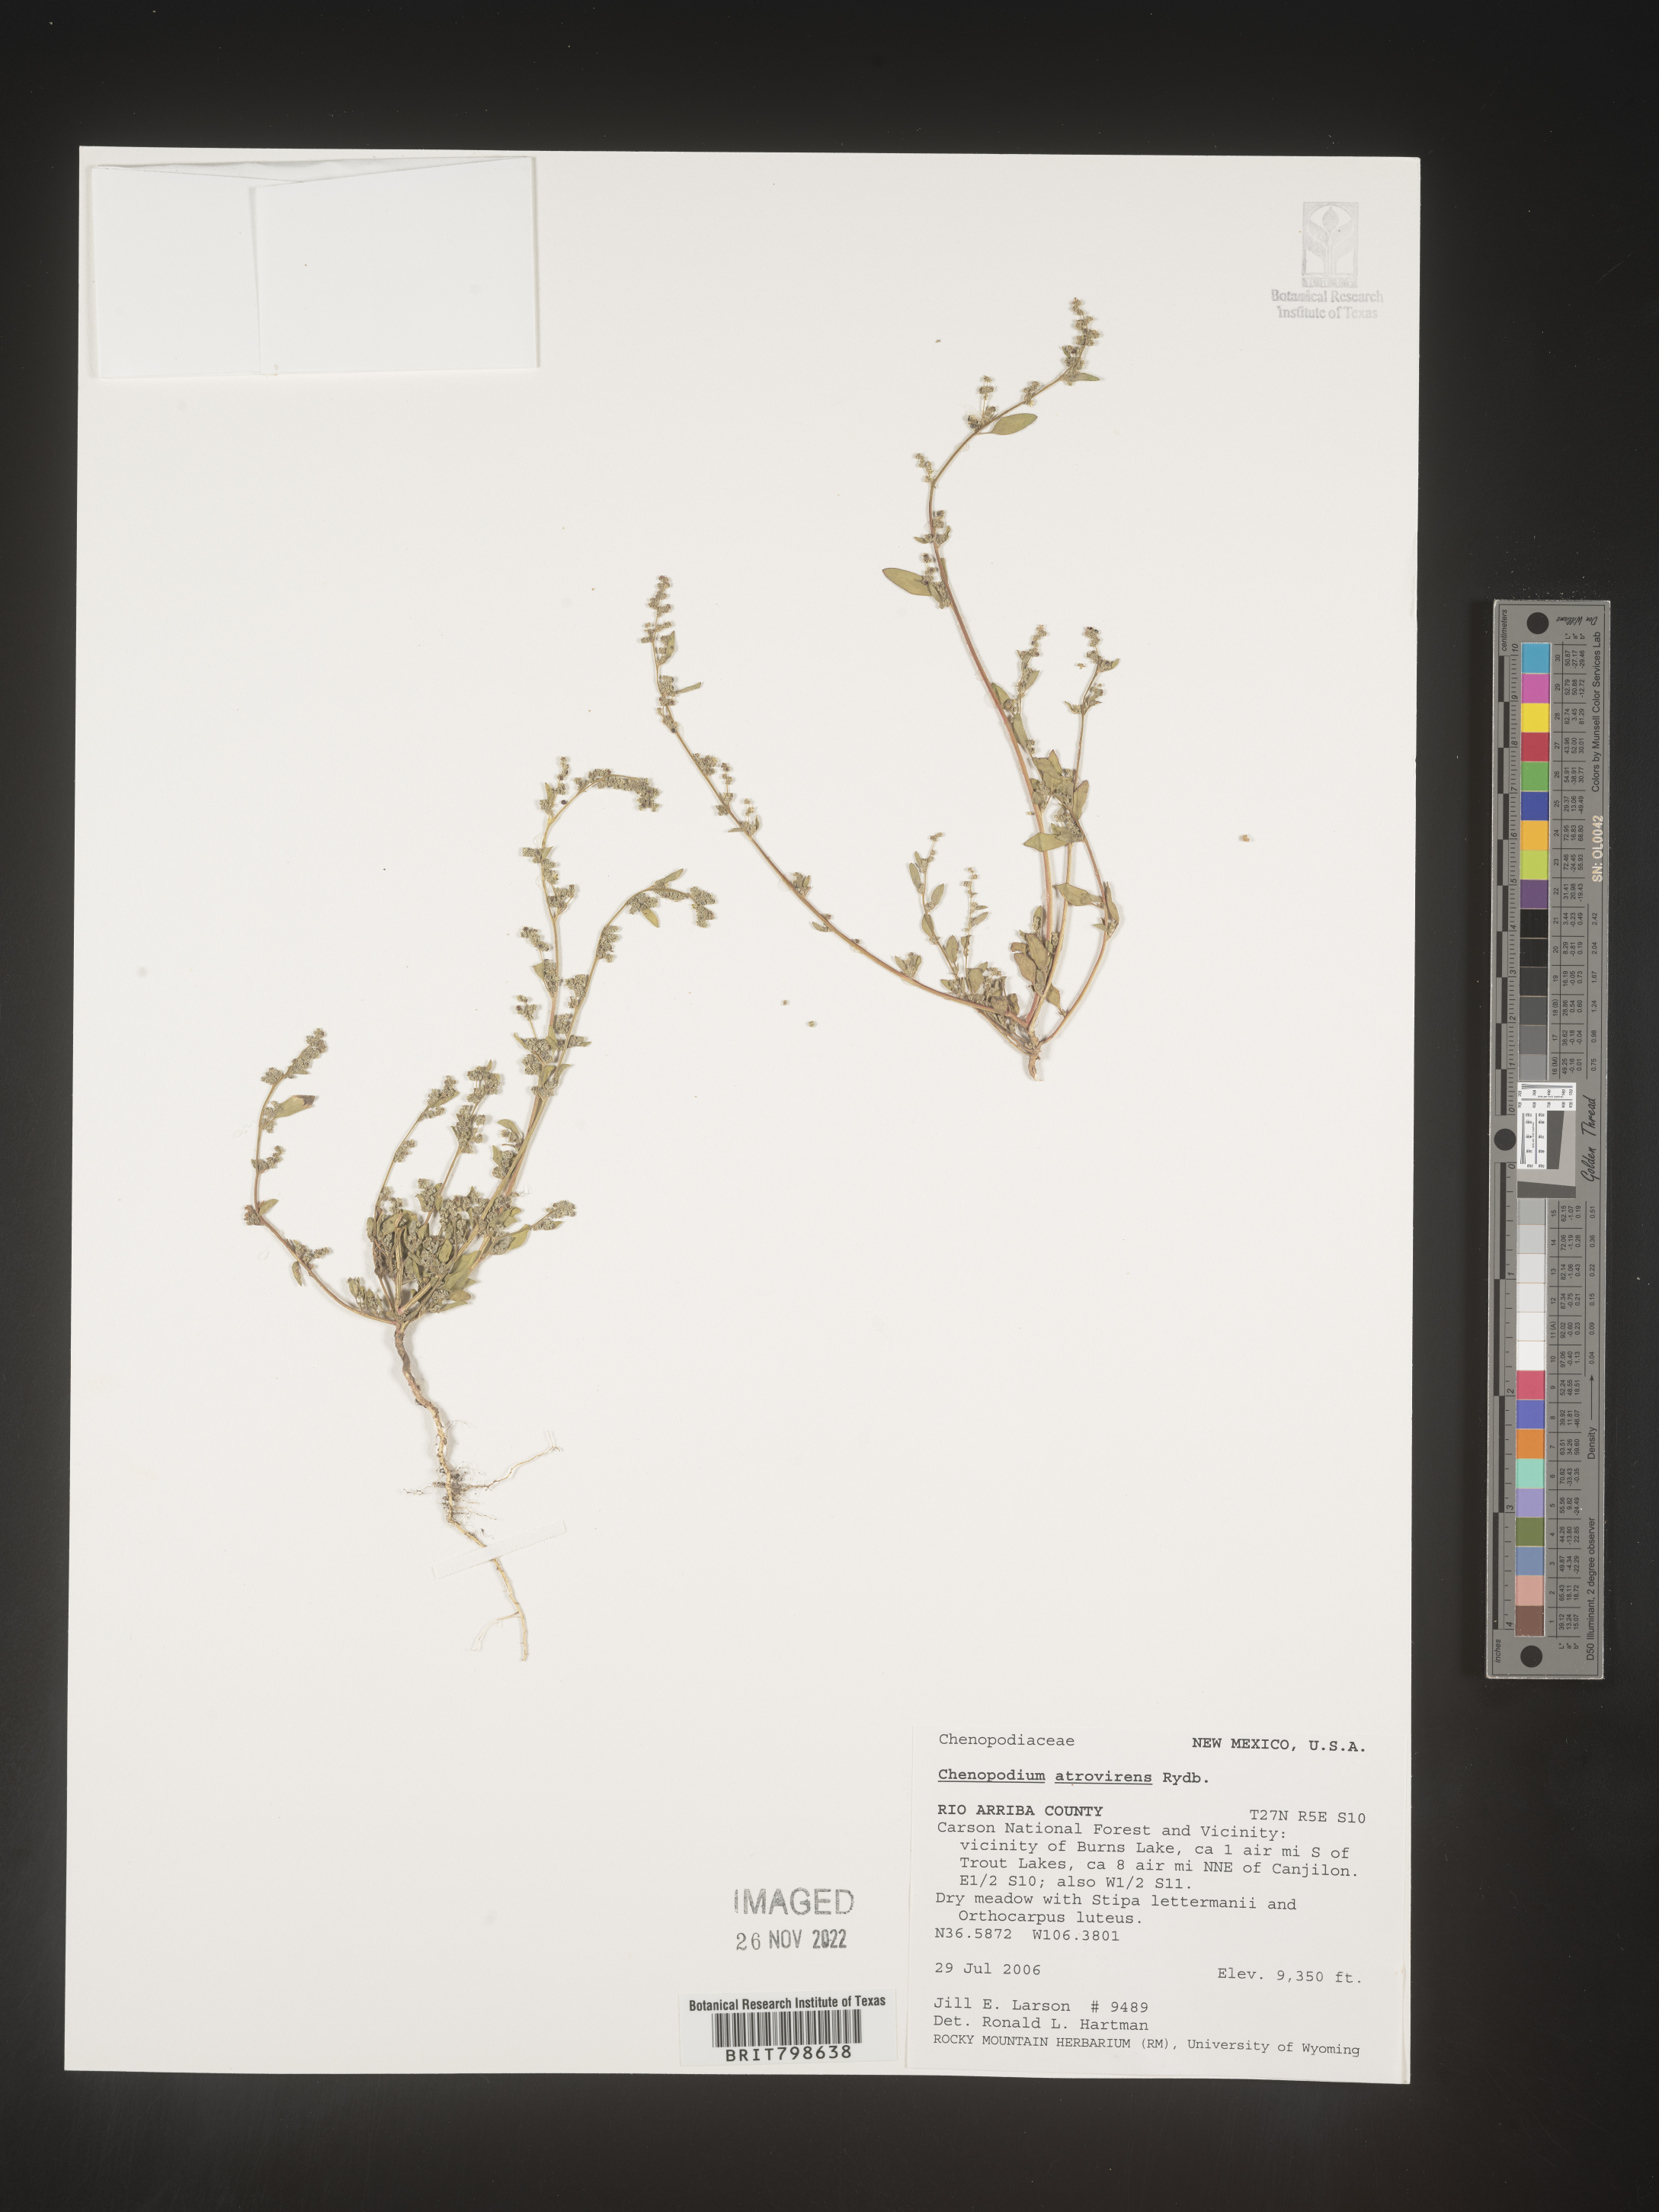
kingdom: Plantae
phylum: Tracheophyta
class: Magnoliopsida
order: Caryophyllales
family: Amaranthaceae
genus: Chenopodium
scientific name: Chenopodium atrovirens
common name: Dark goosefoot
